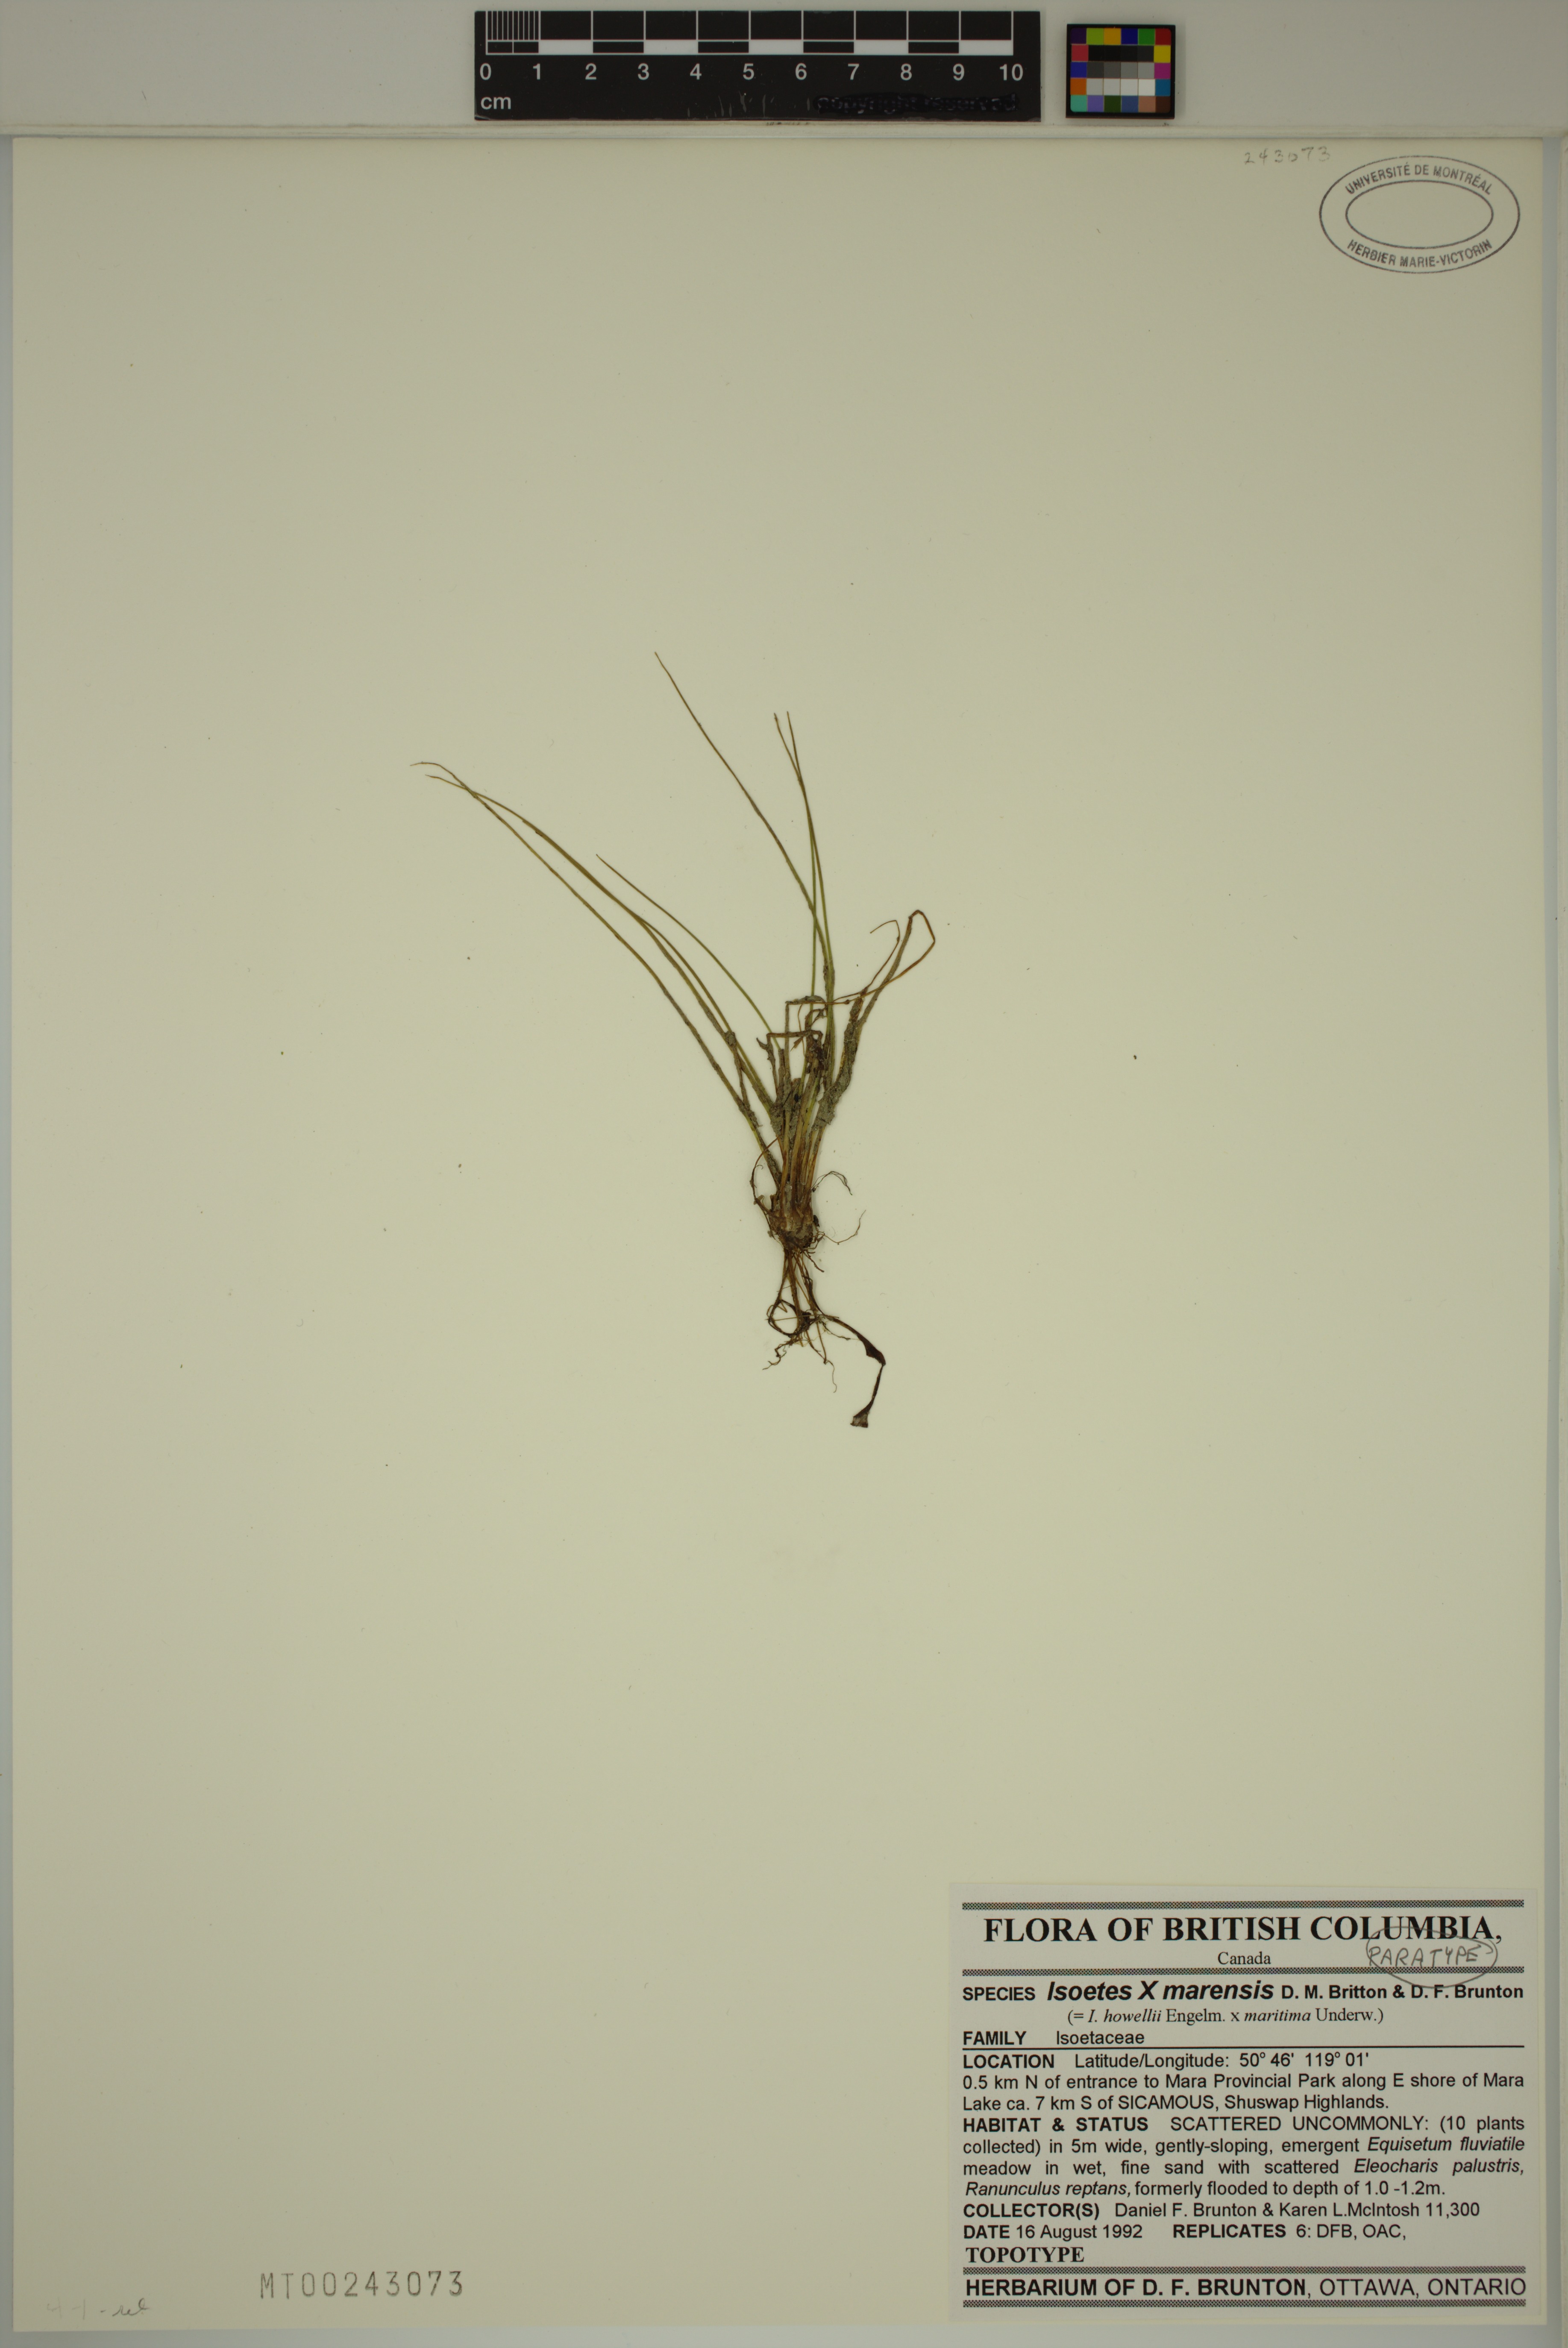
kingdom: Plantae
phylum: Tracheophyta
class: Lycopodiopsida
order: Isoetales
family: Isoetaceae
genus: Isoetes
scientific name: Isoetes marensis
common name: Mara lake quillwort
